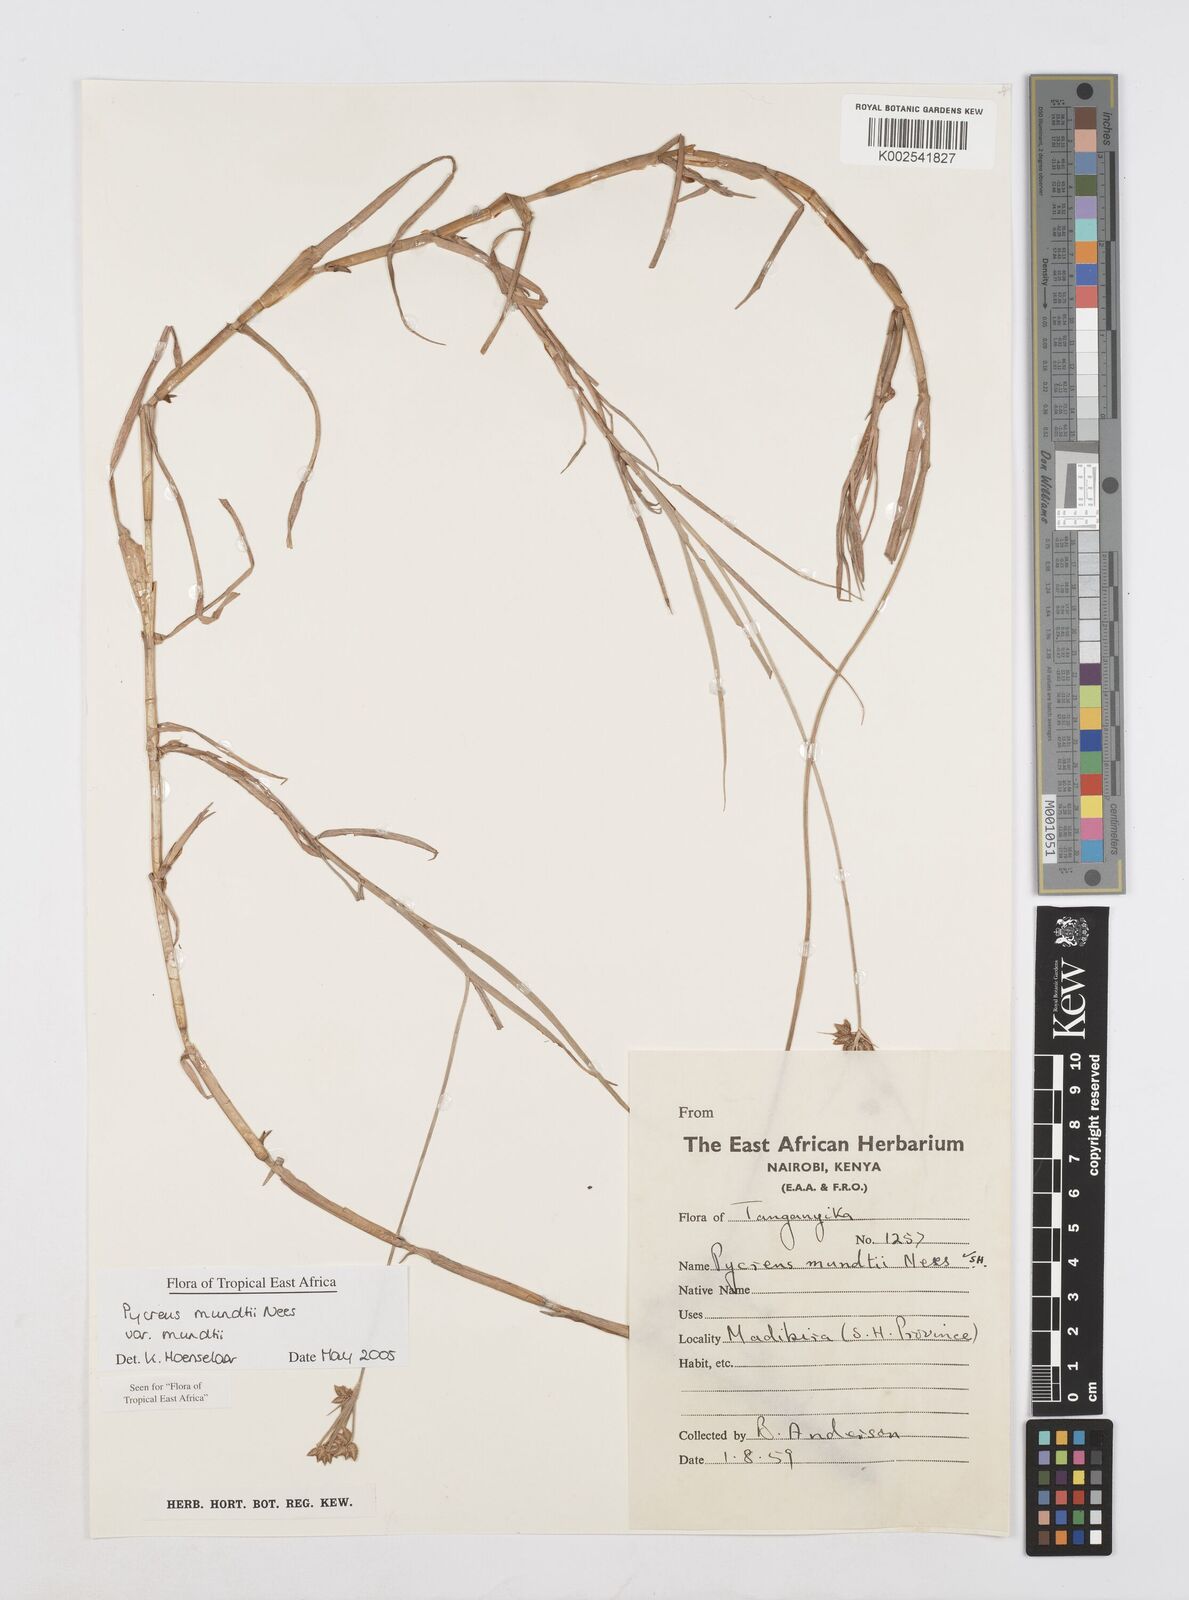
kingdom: Plantae
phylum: Tracheophyta
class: Liliopsida
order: Poales
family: Cyperaceae
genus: Cyperus
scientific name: Cyperus mundii
